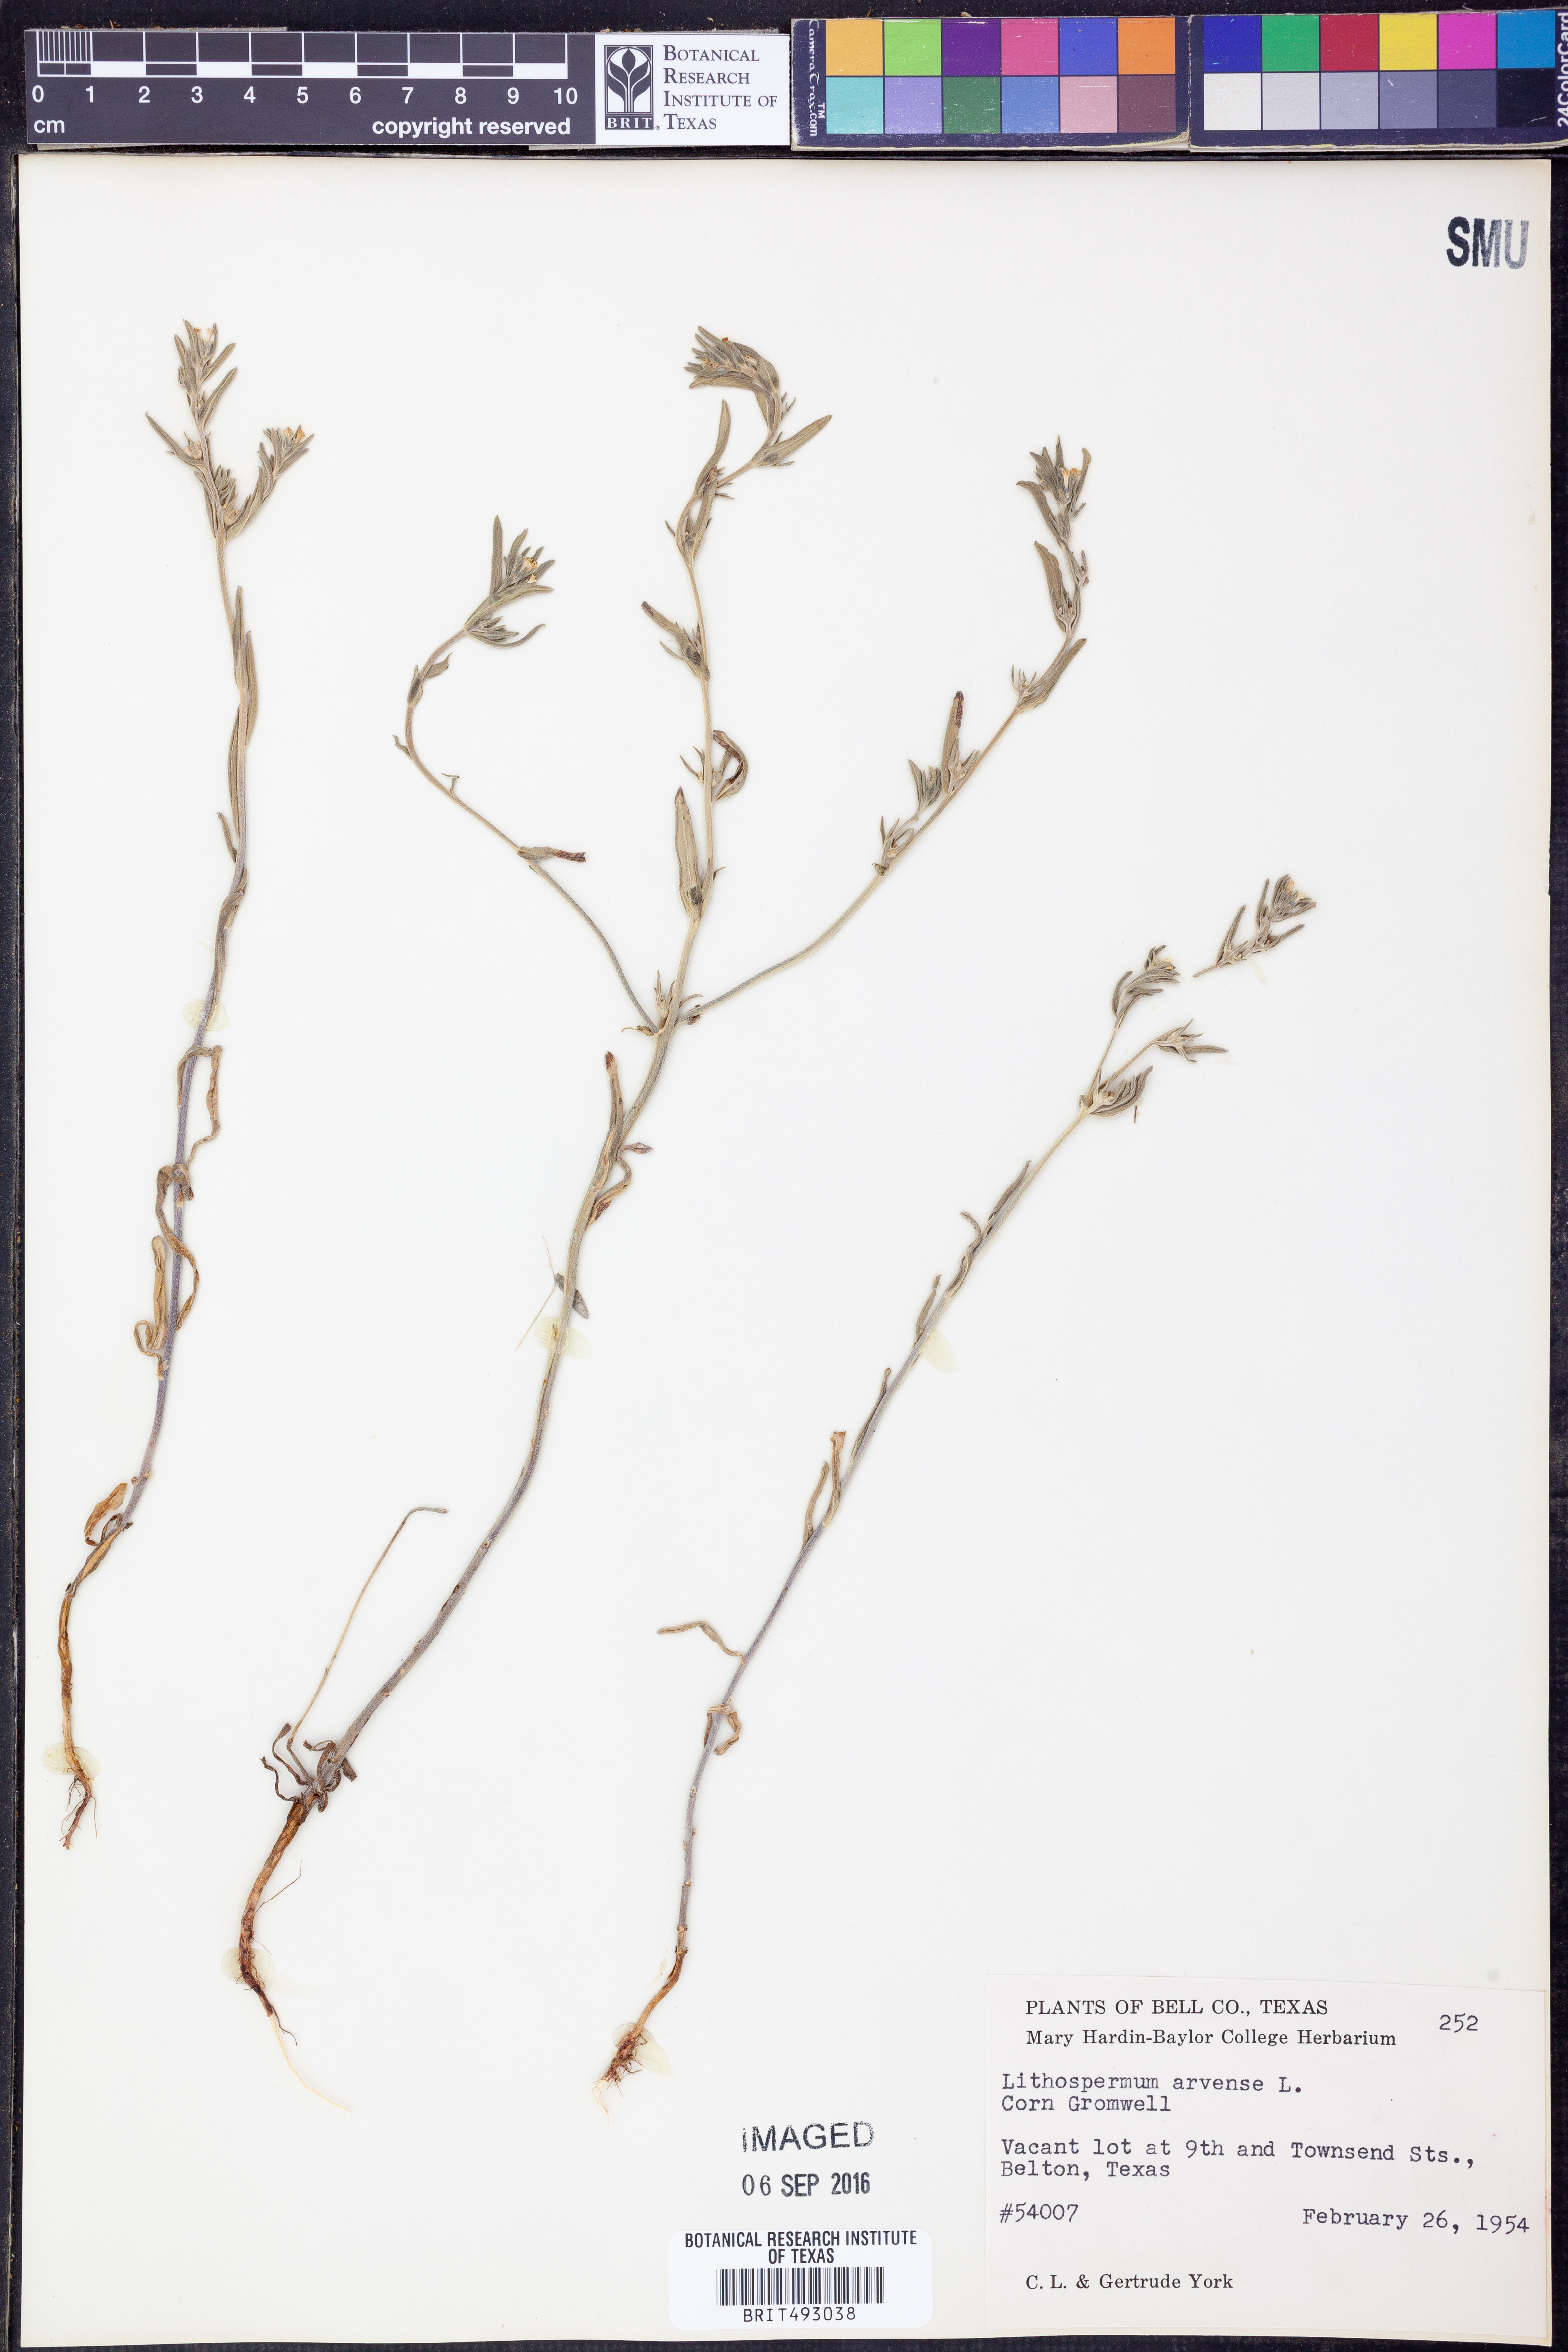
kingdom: Plantae
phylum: Tracheophyta
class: Magnoliopsida
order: Boraginales
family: Boraginaceae
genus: Lithospermum
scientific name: Lithospermum erythrorhizon
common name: Purple gromwell
